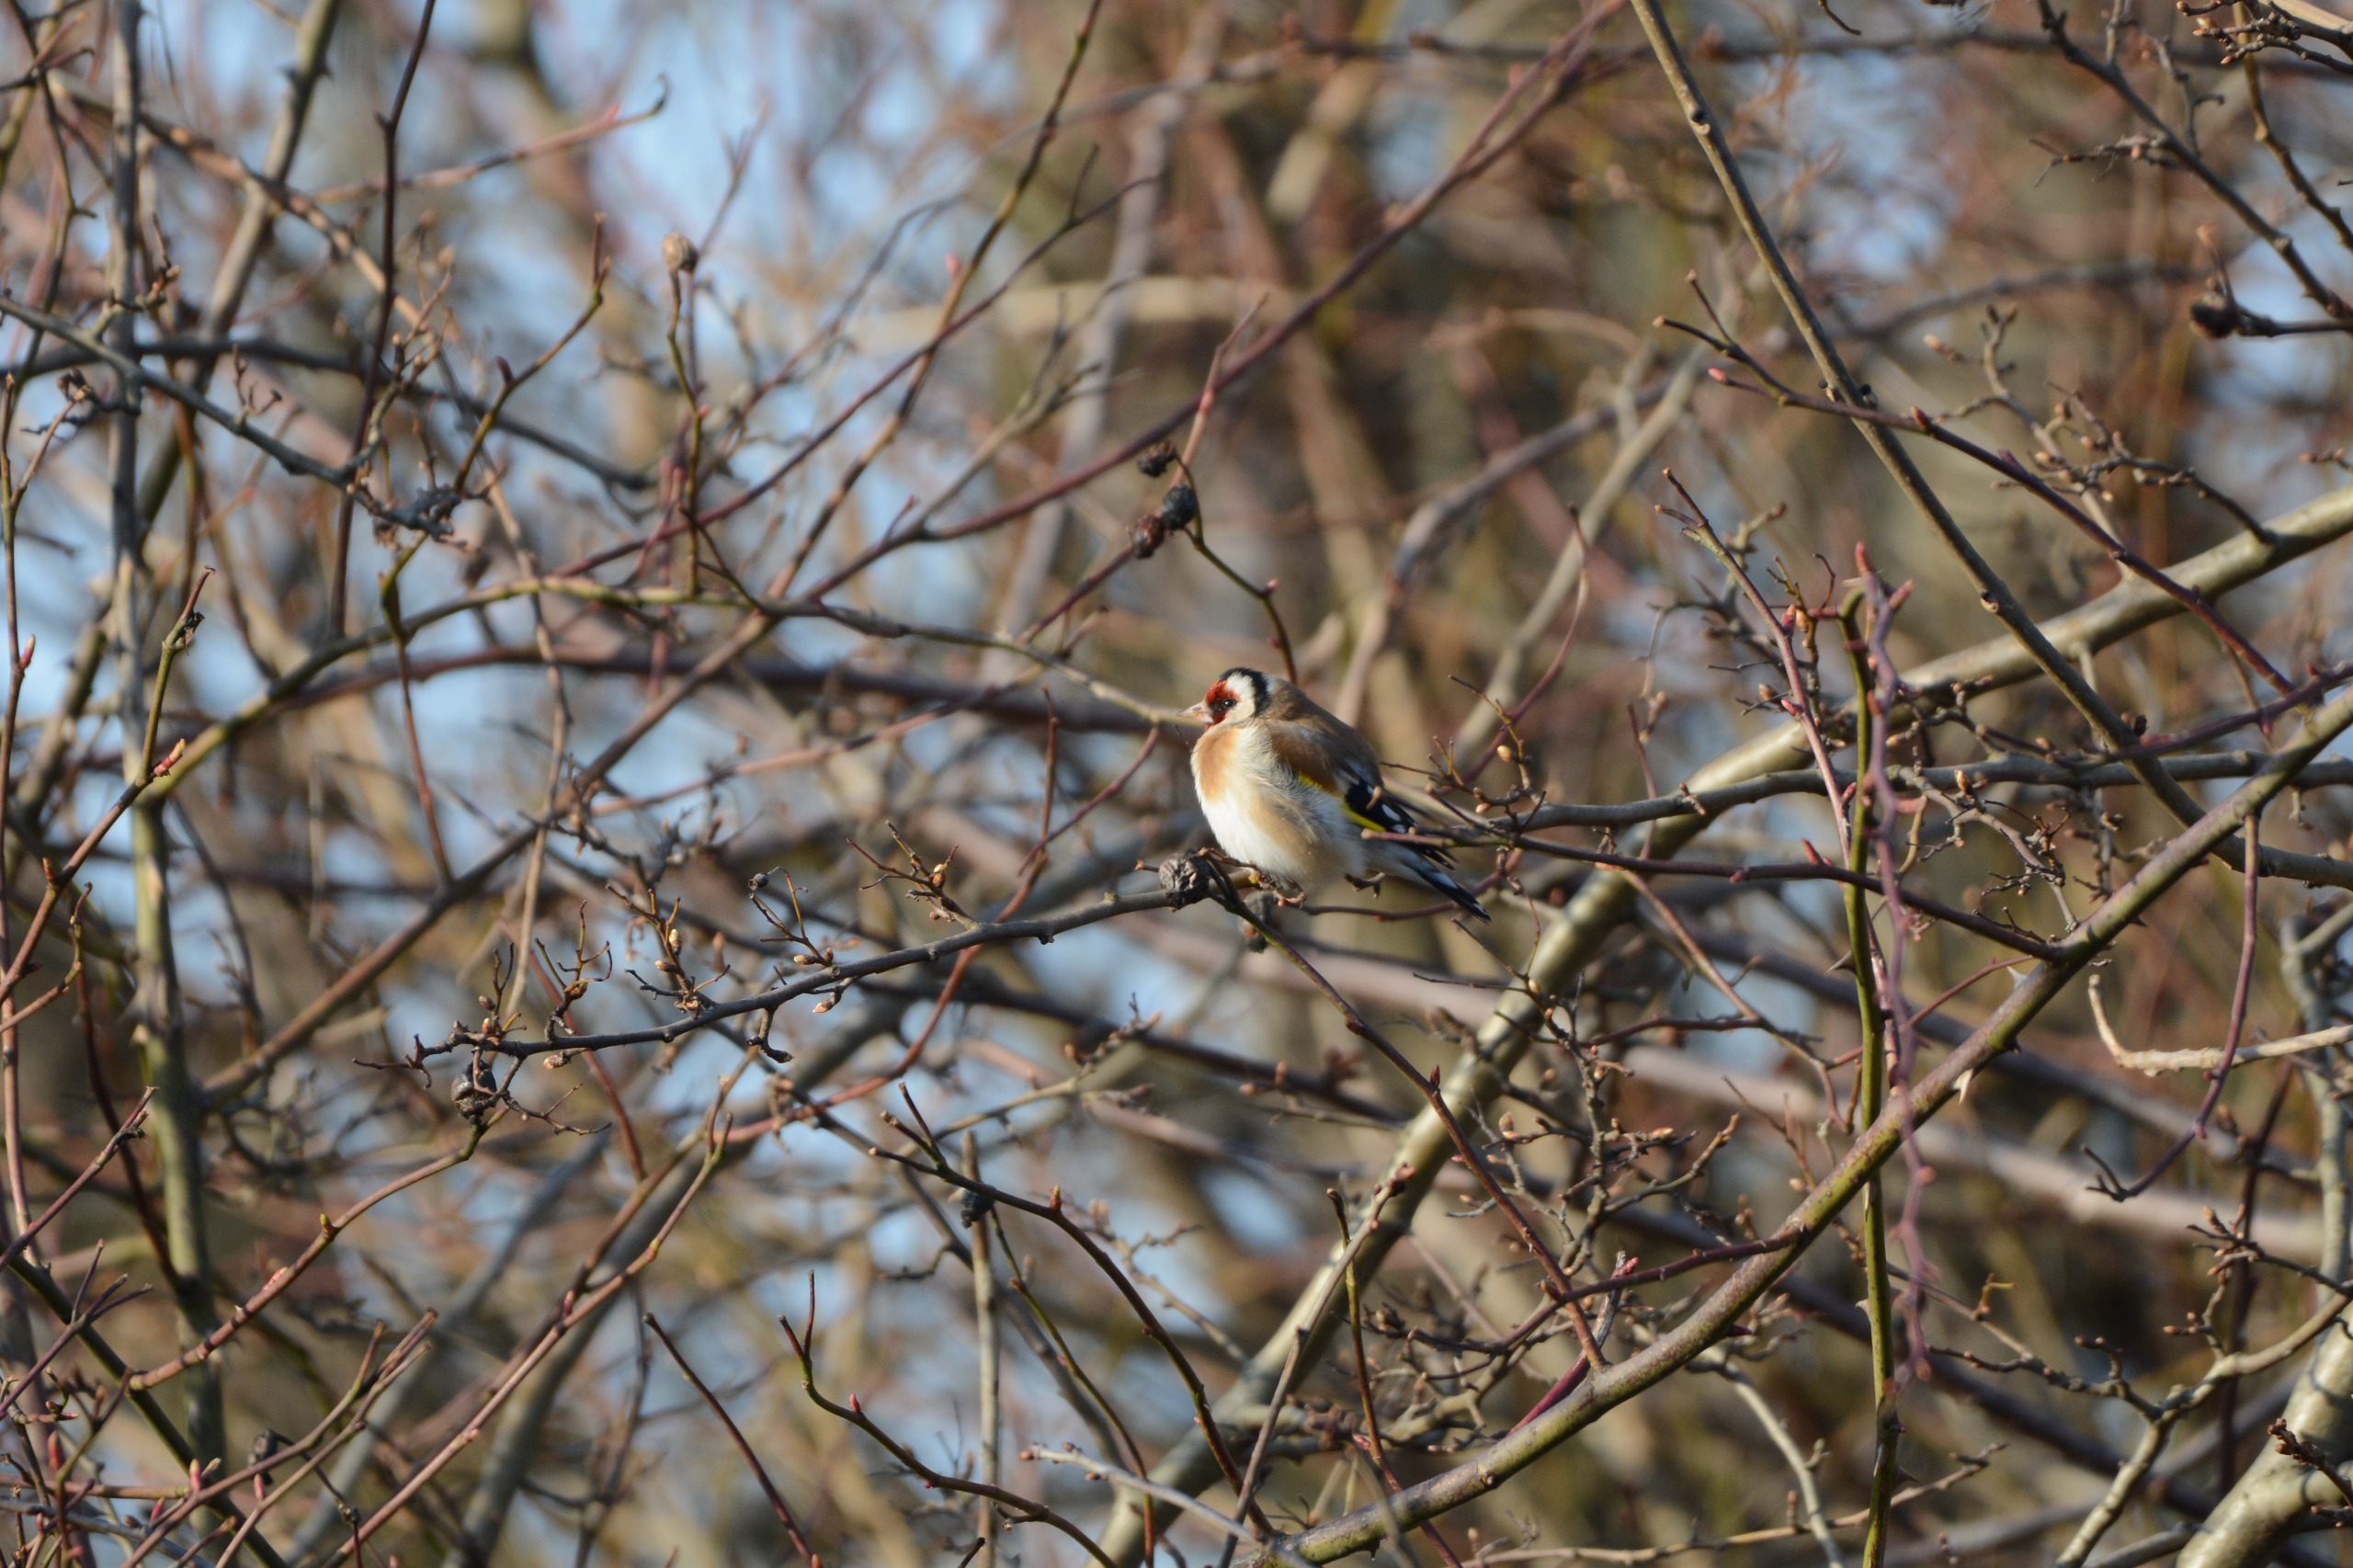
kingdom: Animalia
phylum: Chordata
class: Aves
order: Passeriformes
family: Fringillidae
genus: Carduelis
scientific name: Carduelis carduelis
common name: Stillits
